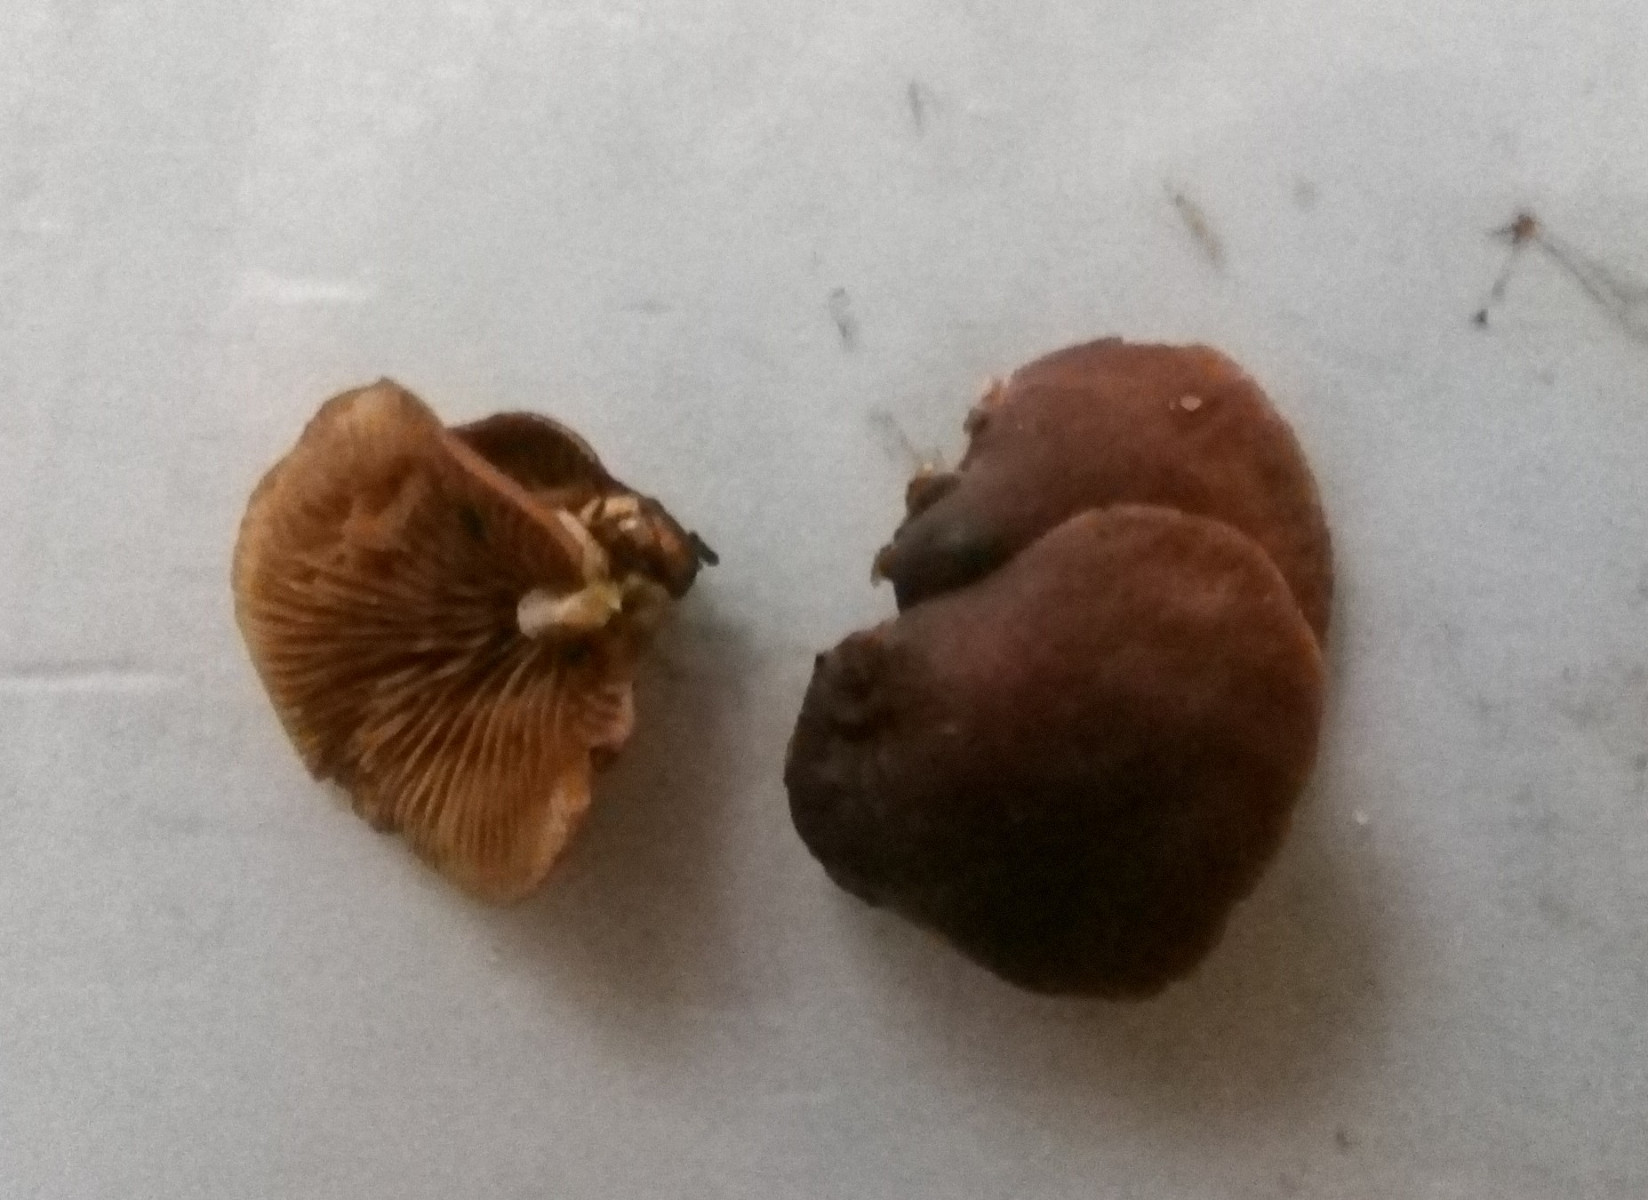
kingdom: Fungi
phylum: Basidiomycota
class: Agaricomycetes
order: Agaricales
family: Strophariaceae
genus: Deconica
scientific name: Deconica horizontalis
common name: ved-stråhat
